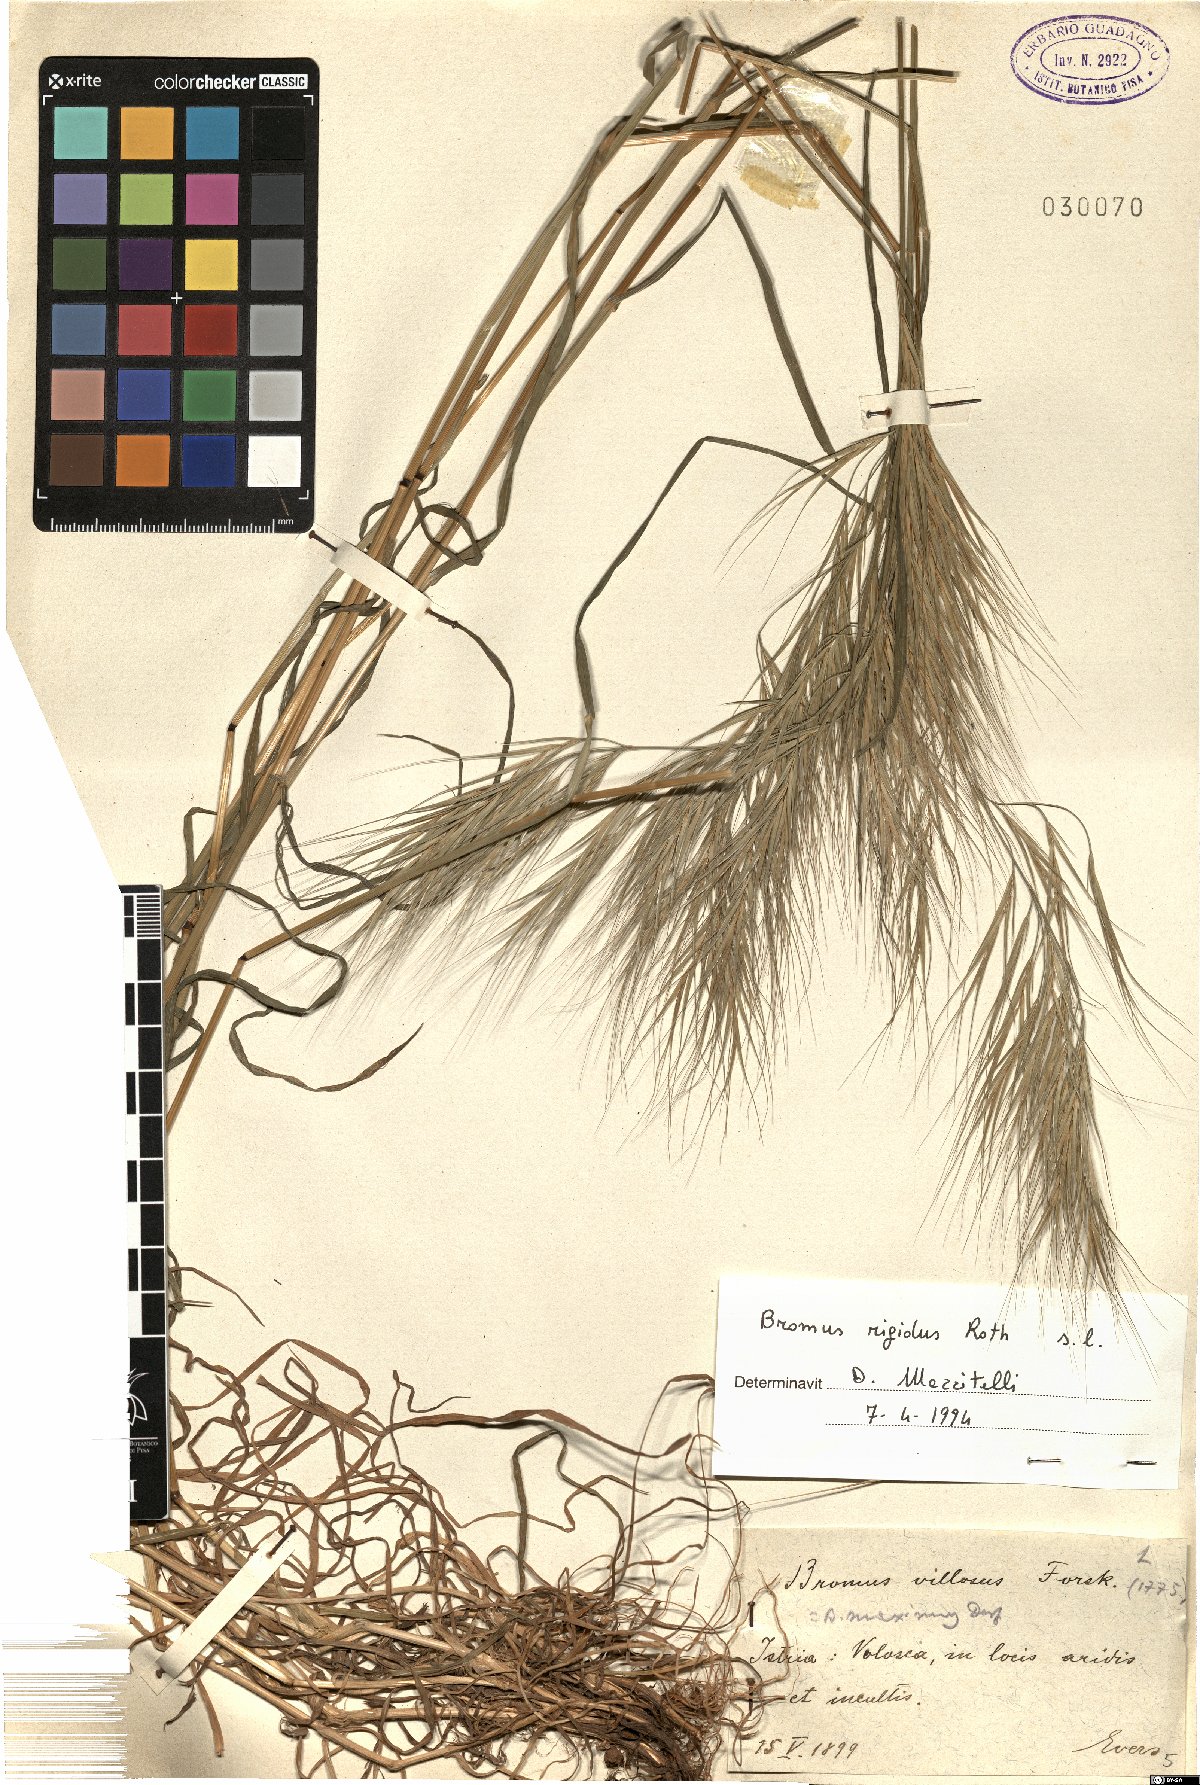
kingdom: Plantae
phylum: Tracheophyta
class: Liliopsida
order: Poales
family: Poaceae
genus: Bromus
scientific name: Bromus rigidus
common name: Ripgut brome
